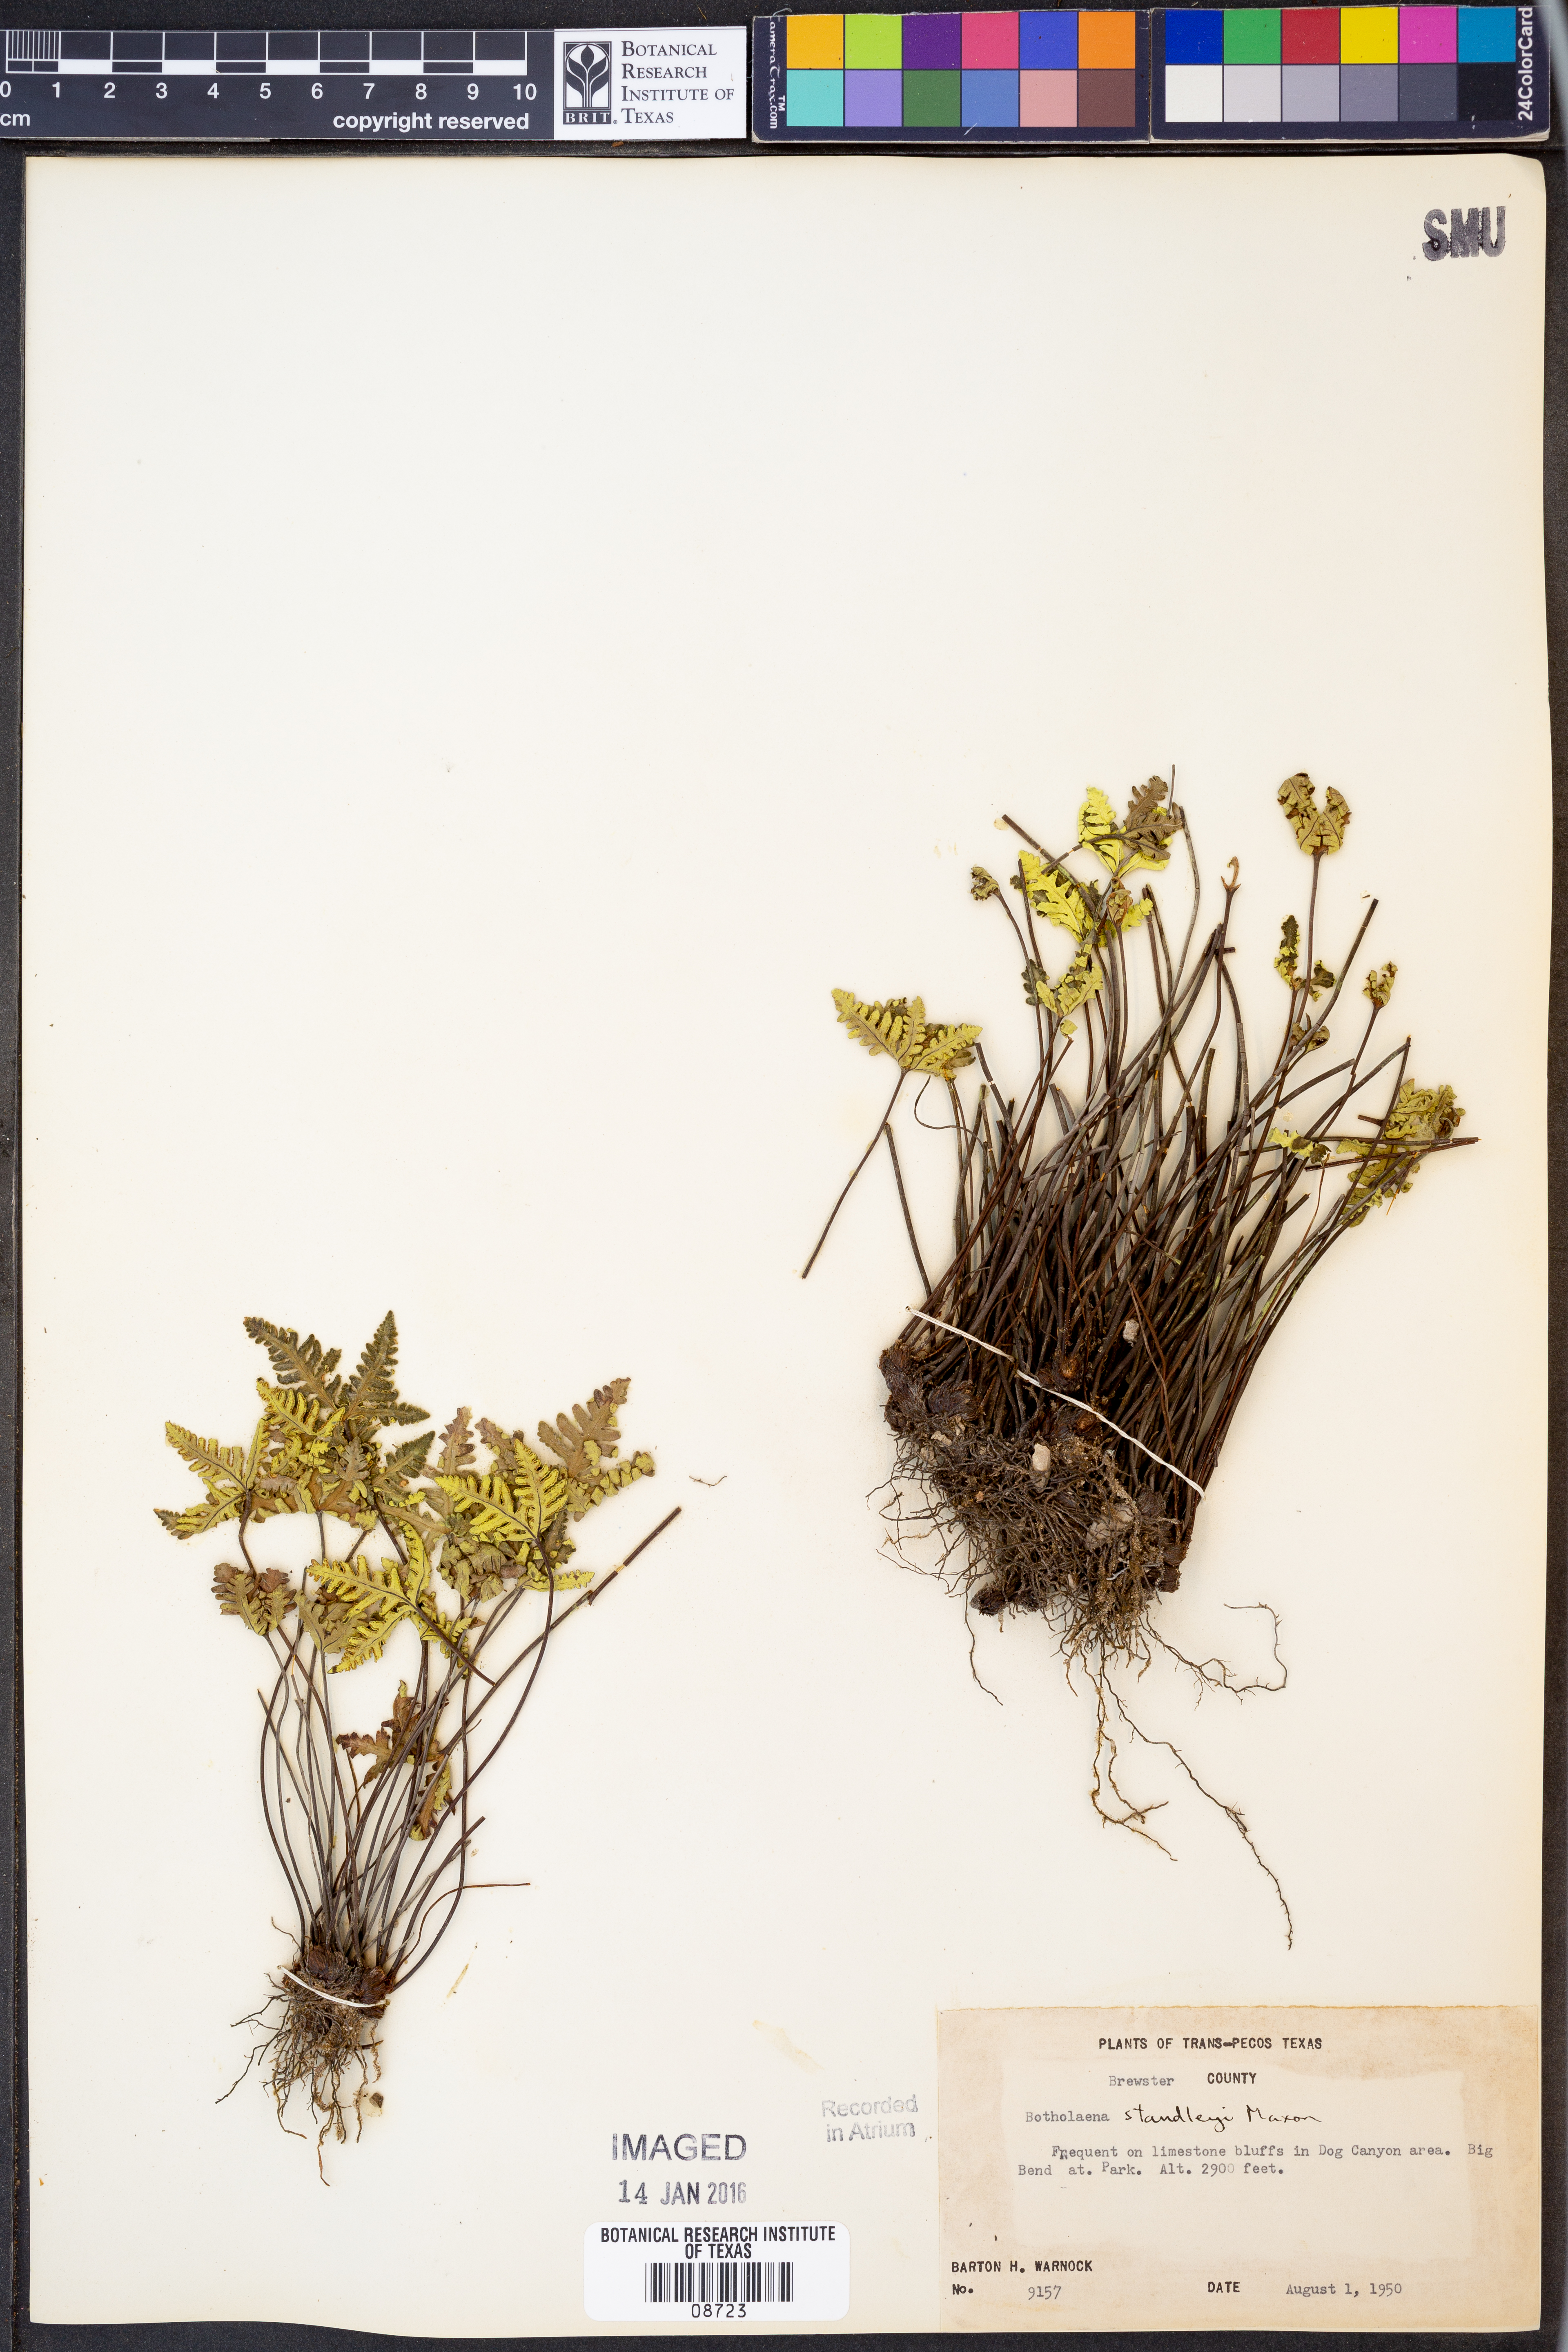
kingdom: Plantae
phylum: Tracheophyta
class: Polypodiopsida
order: Polypodiales
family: Pteridaceae
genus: Notholaena
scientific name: Notholaena standleyi
